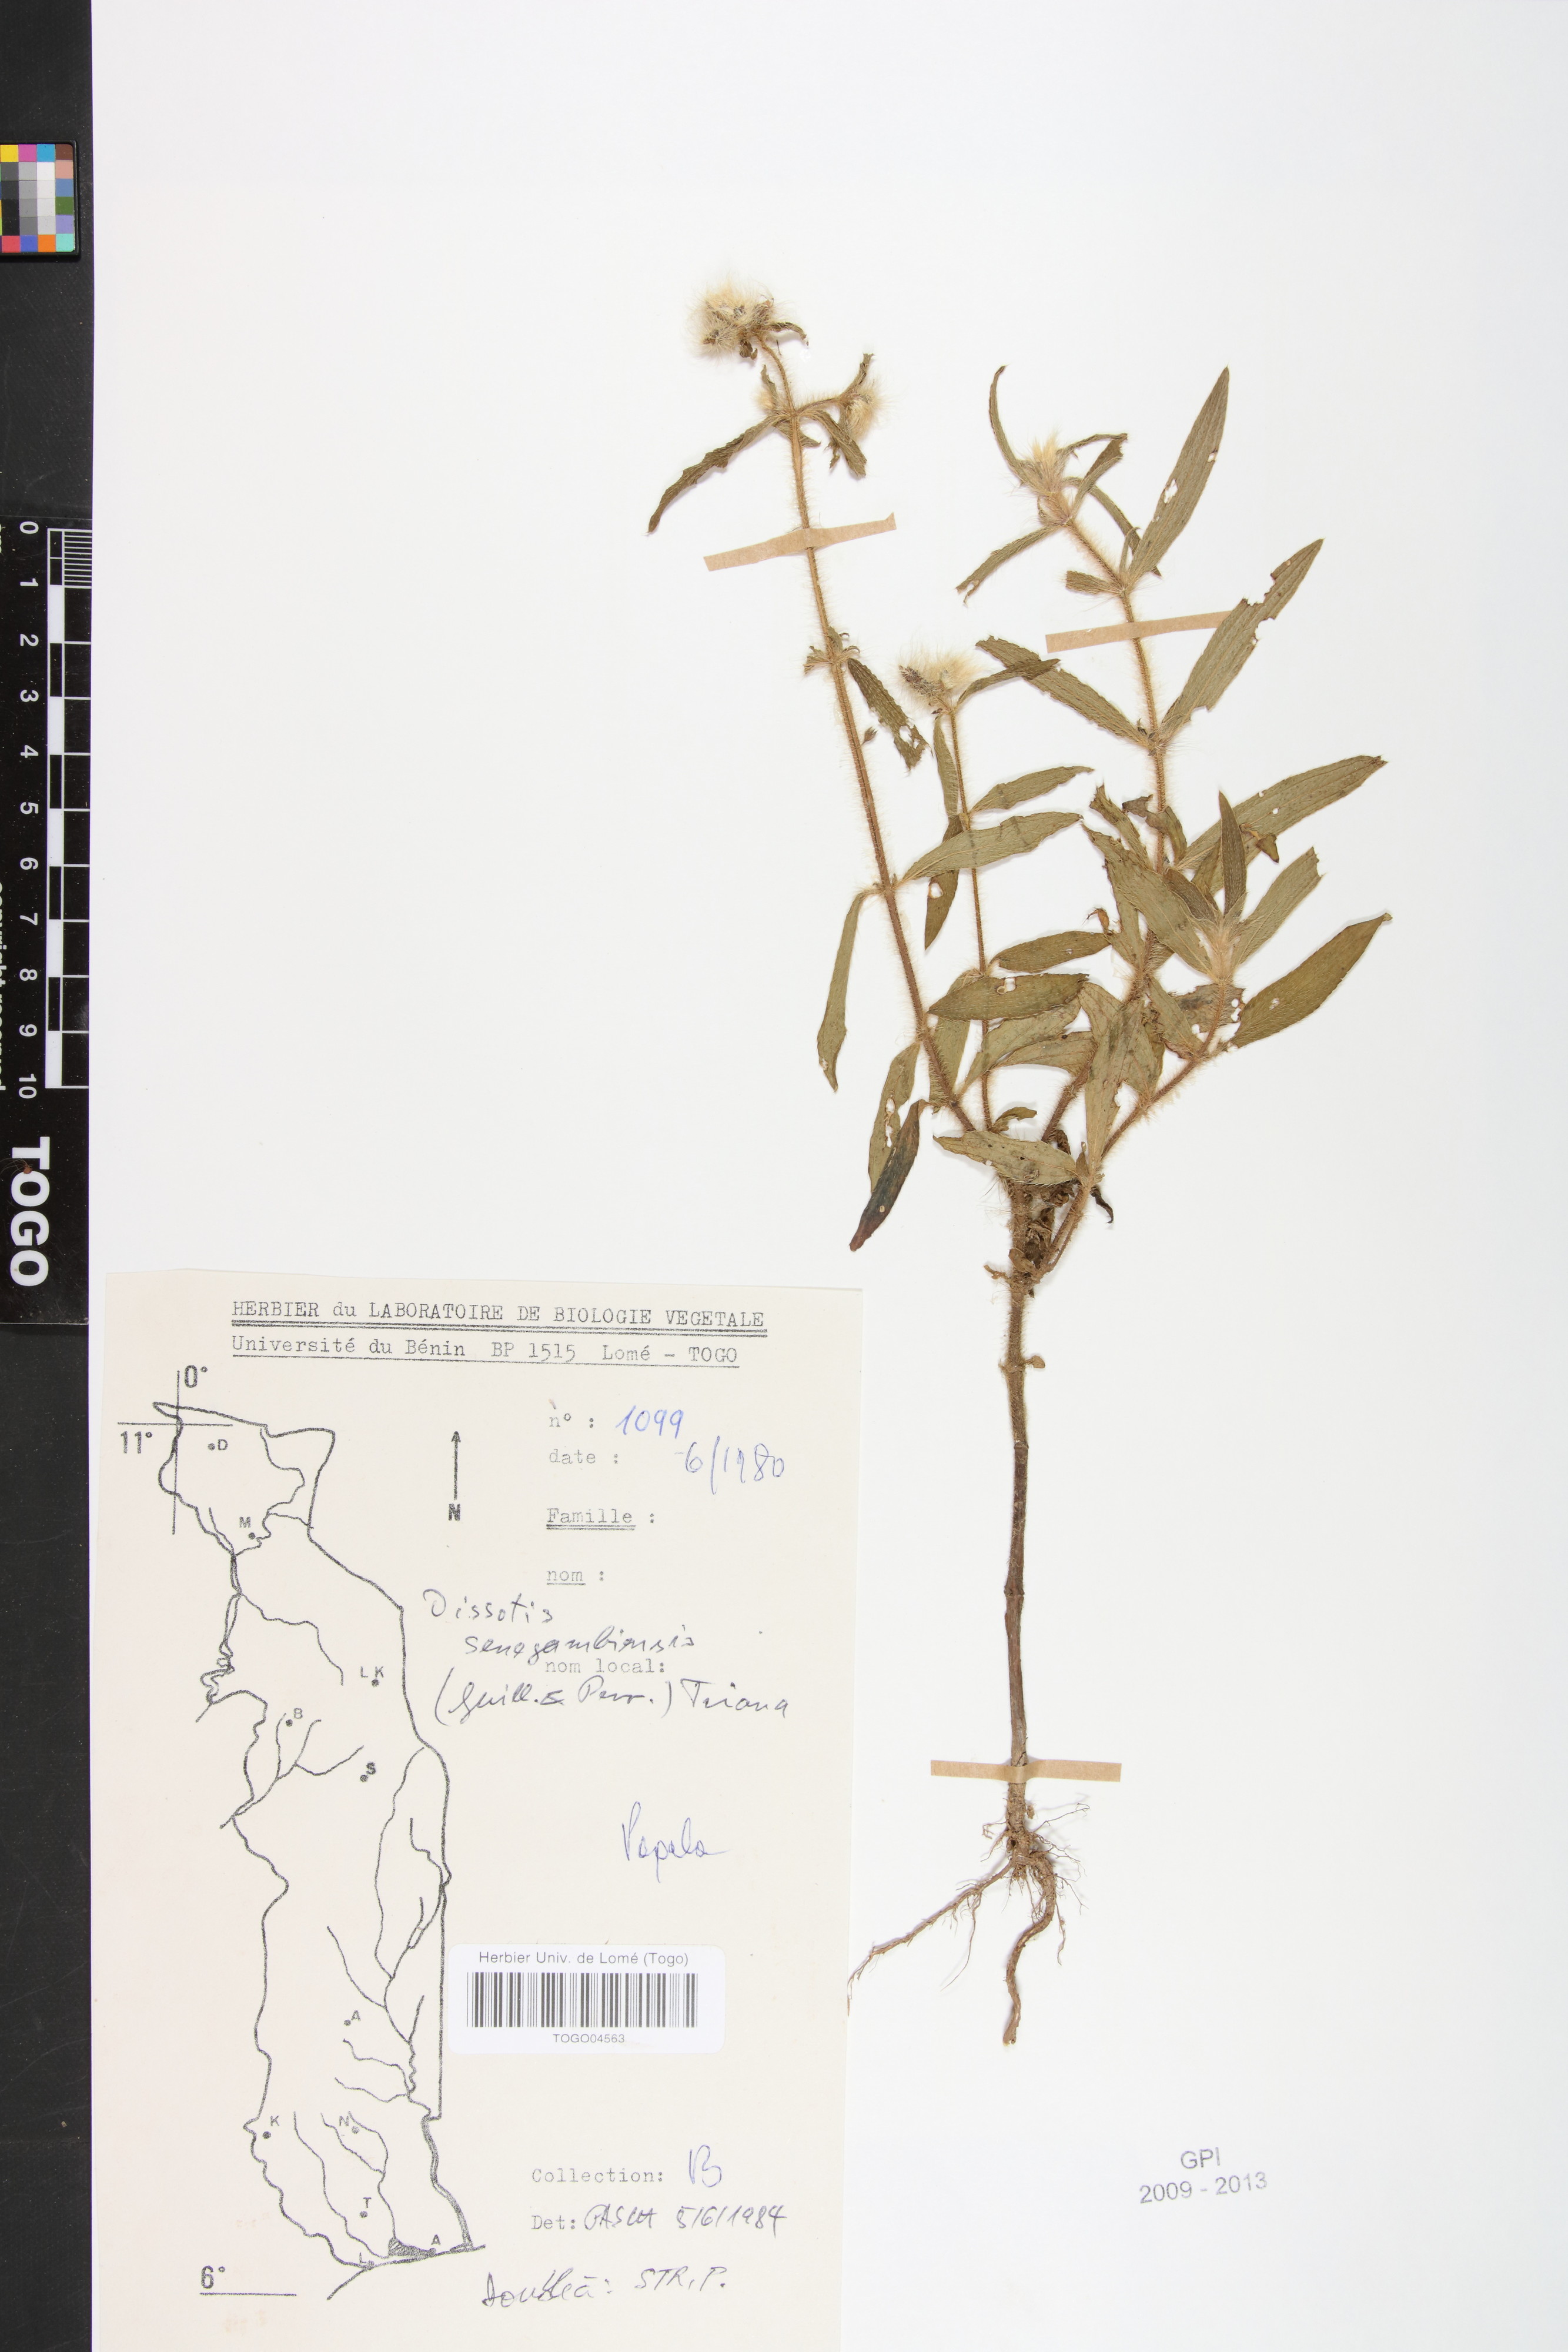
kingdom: Plantae
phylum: Tracheophyta
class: Magnoliopsida
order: Myrtales
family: Melastomataceae
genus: Antherotoma
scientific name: Antherotoma irvingiana
